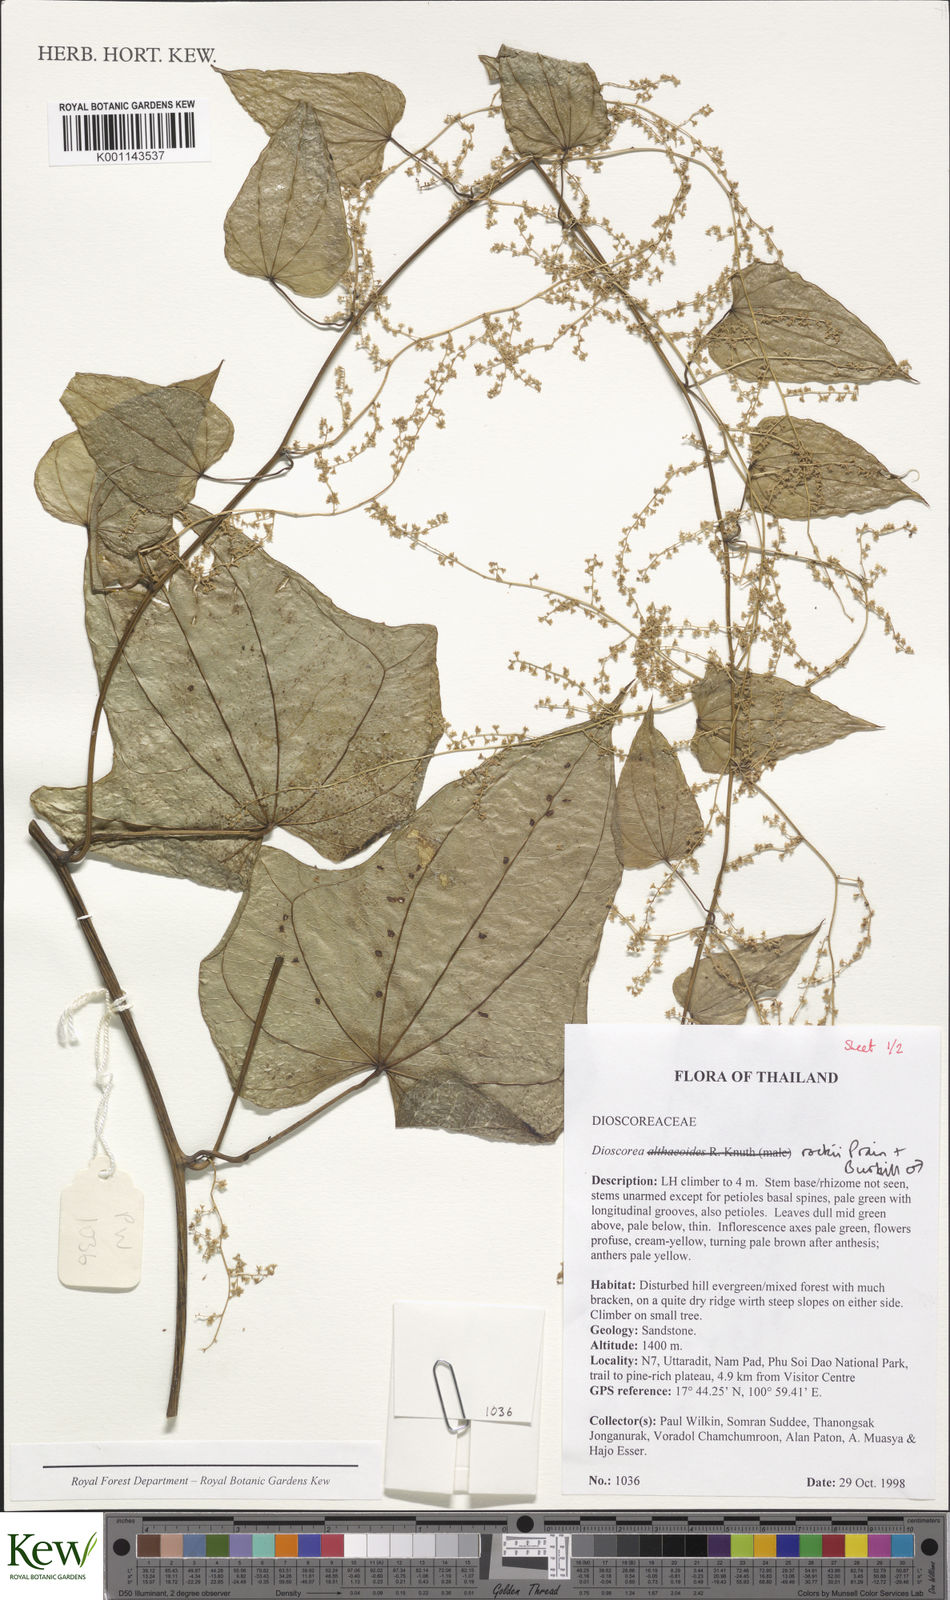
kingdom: Plantae
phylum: Tracheophyta
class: Liliopsida
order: Dioscoreales
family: Dioscoreaceae
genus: Dioscorea
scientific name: Dioscorea rockii
